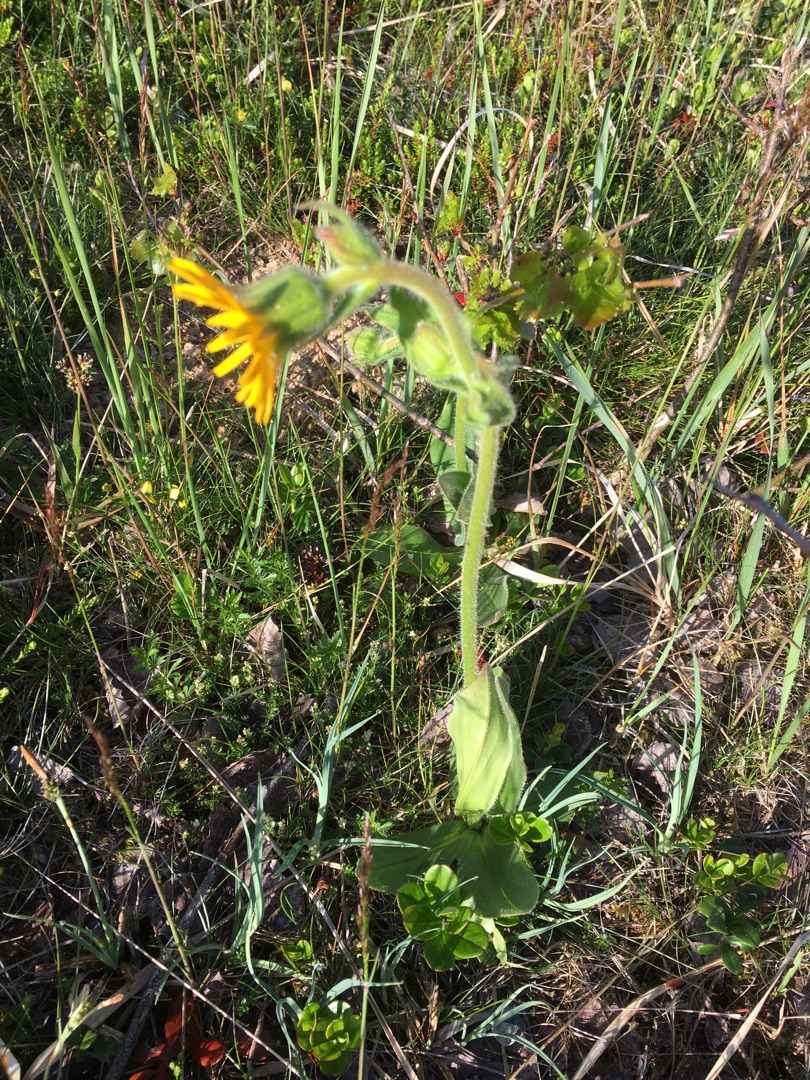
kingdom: Plantae
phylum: Tracheophyta
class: Magnoliopsida
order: Asterales
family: Asteraceae
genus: Arnica
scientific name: Arnica montana
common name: Guldblomme
